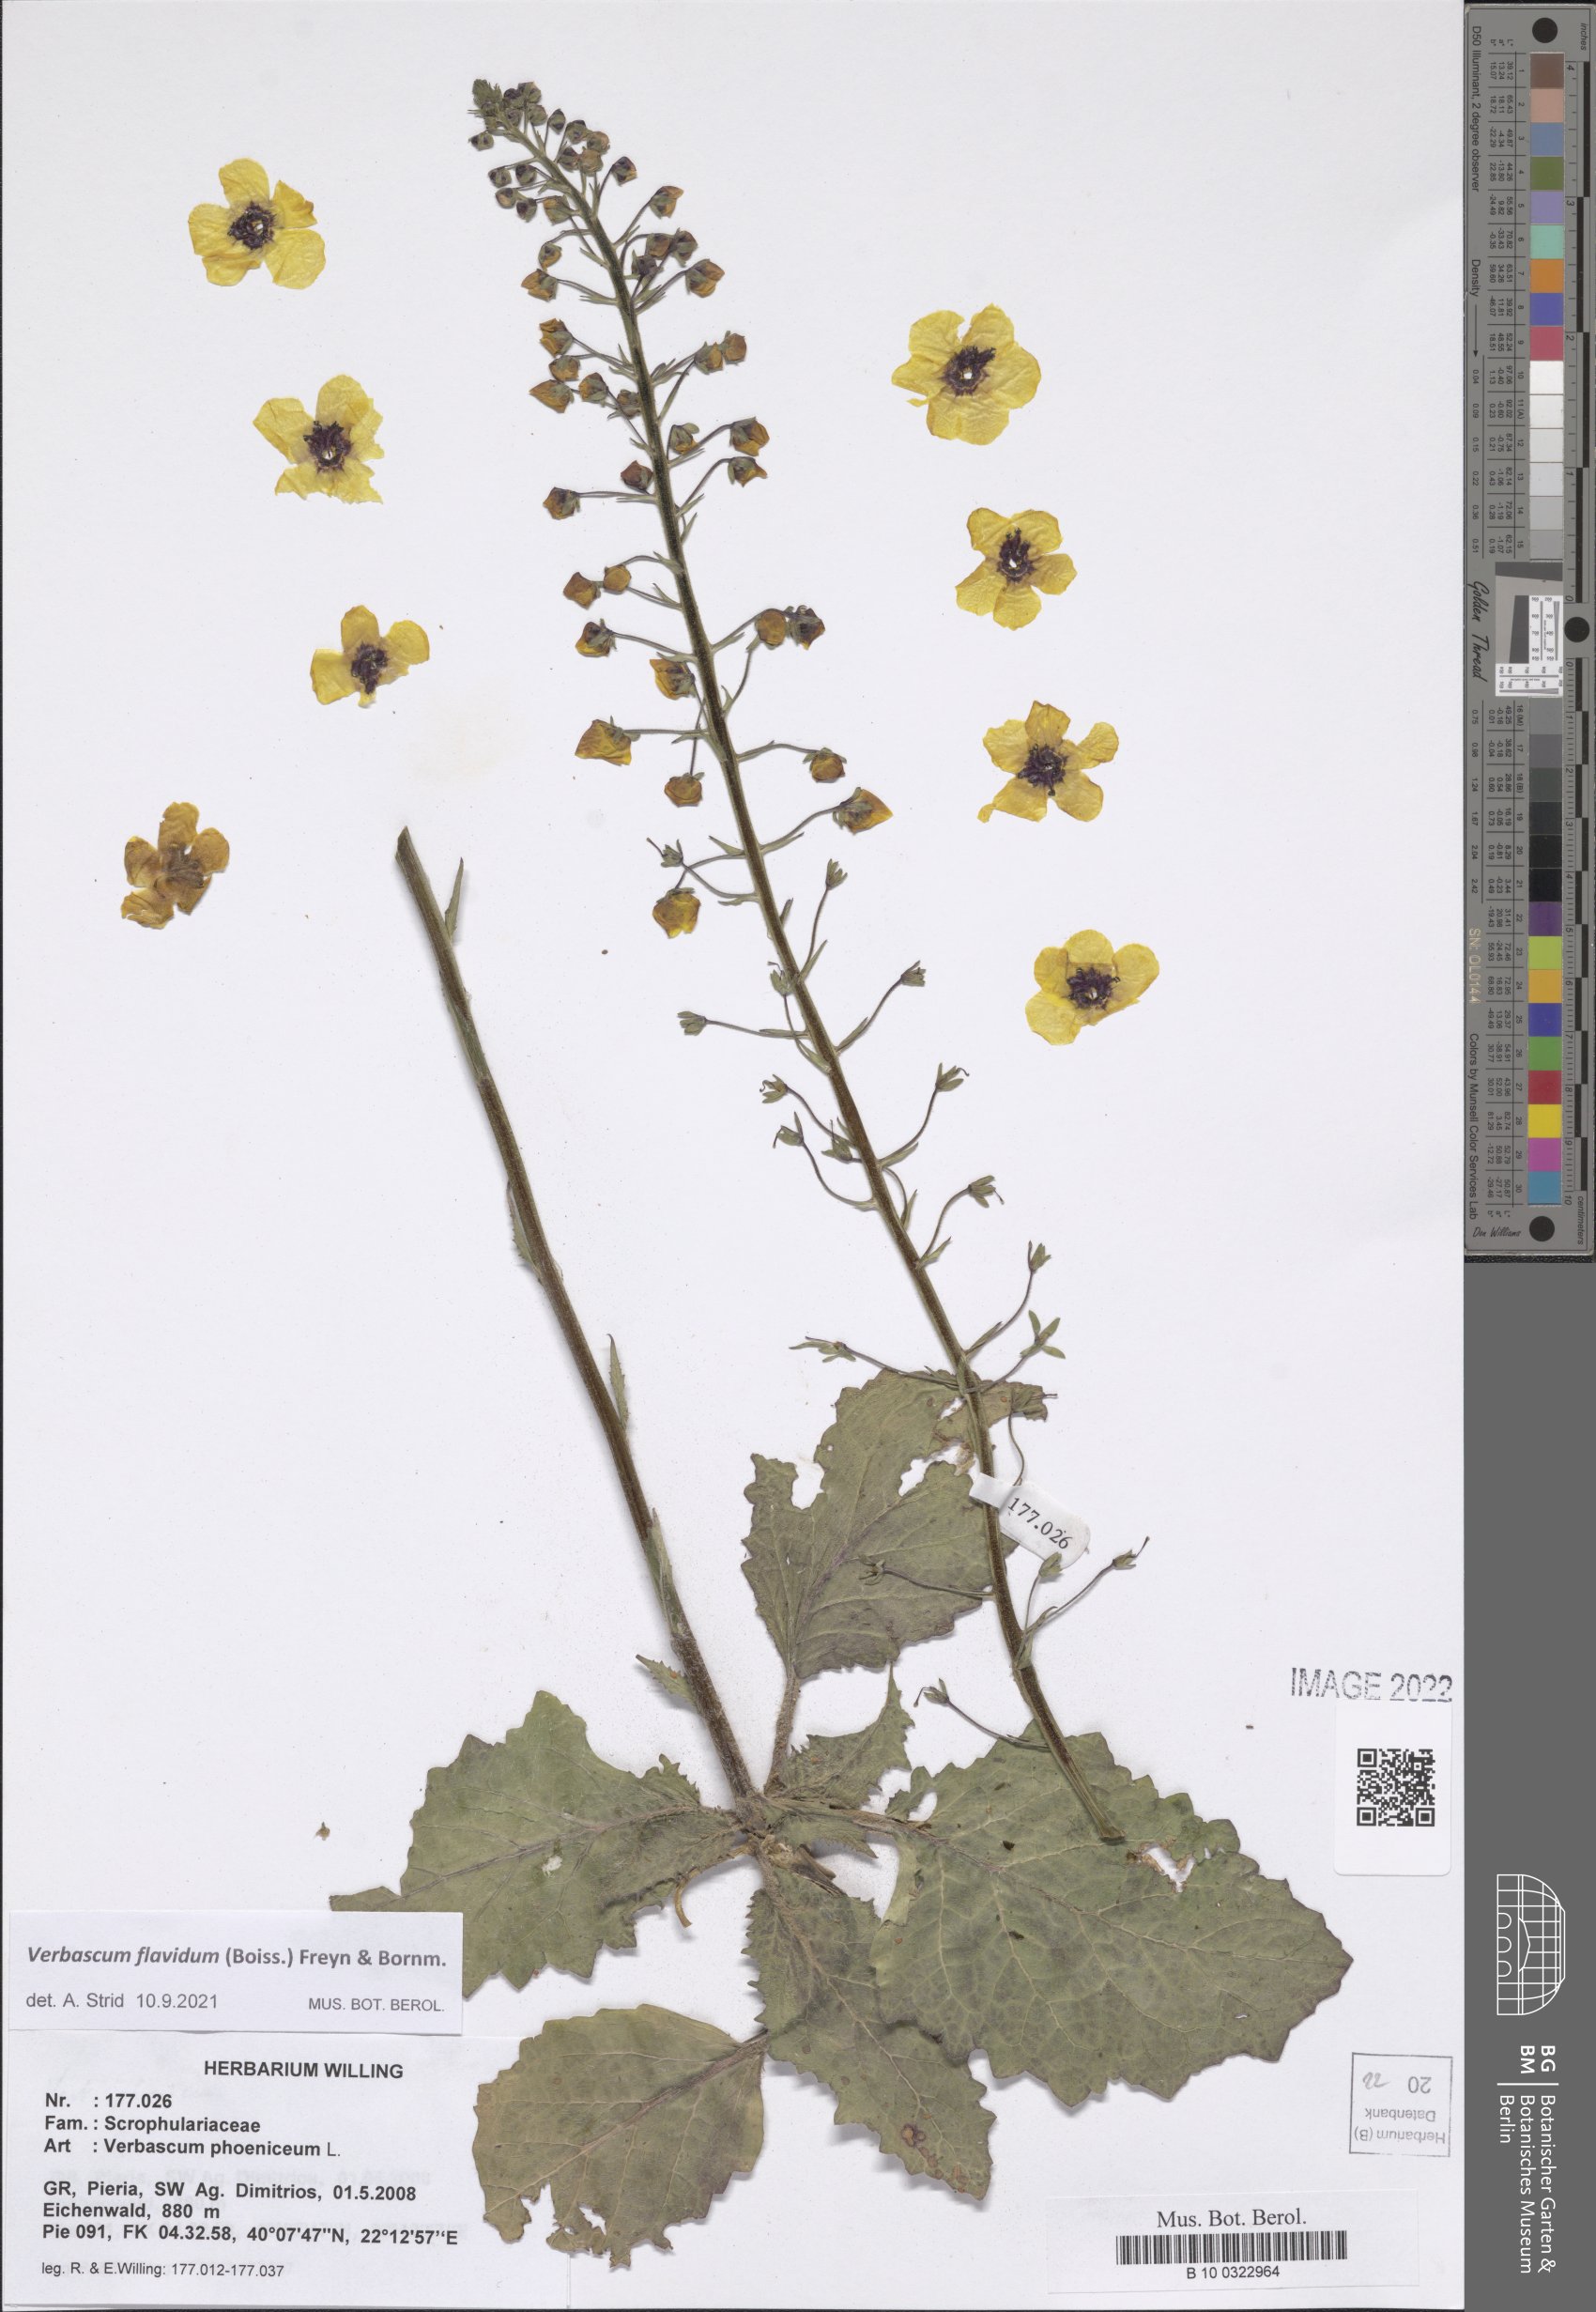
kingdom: Plantae
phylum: Tracheophyta
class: Magnoliopsida
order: Lamiales
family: Scrophulariaceae
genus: Verbascum
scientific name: Verbascum flavidum
